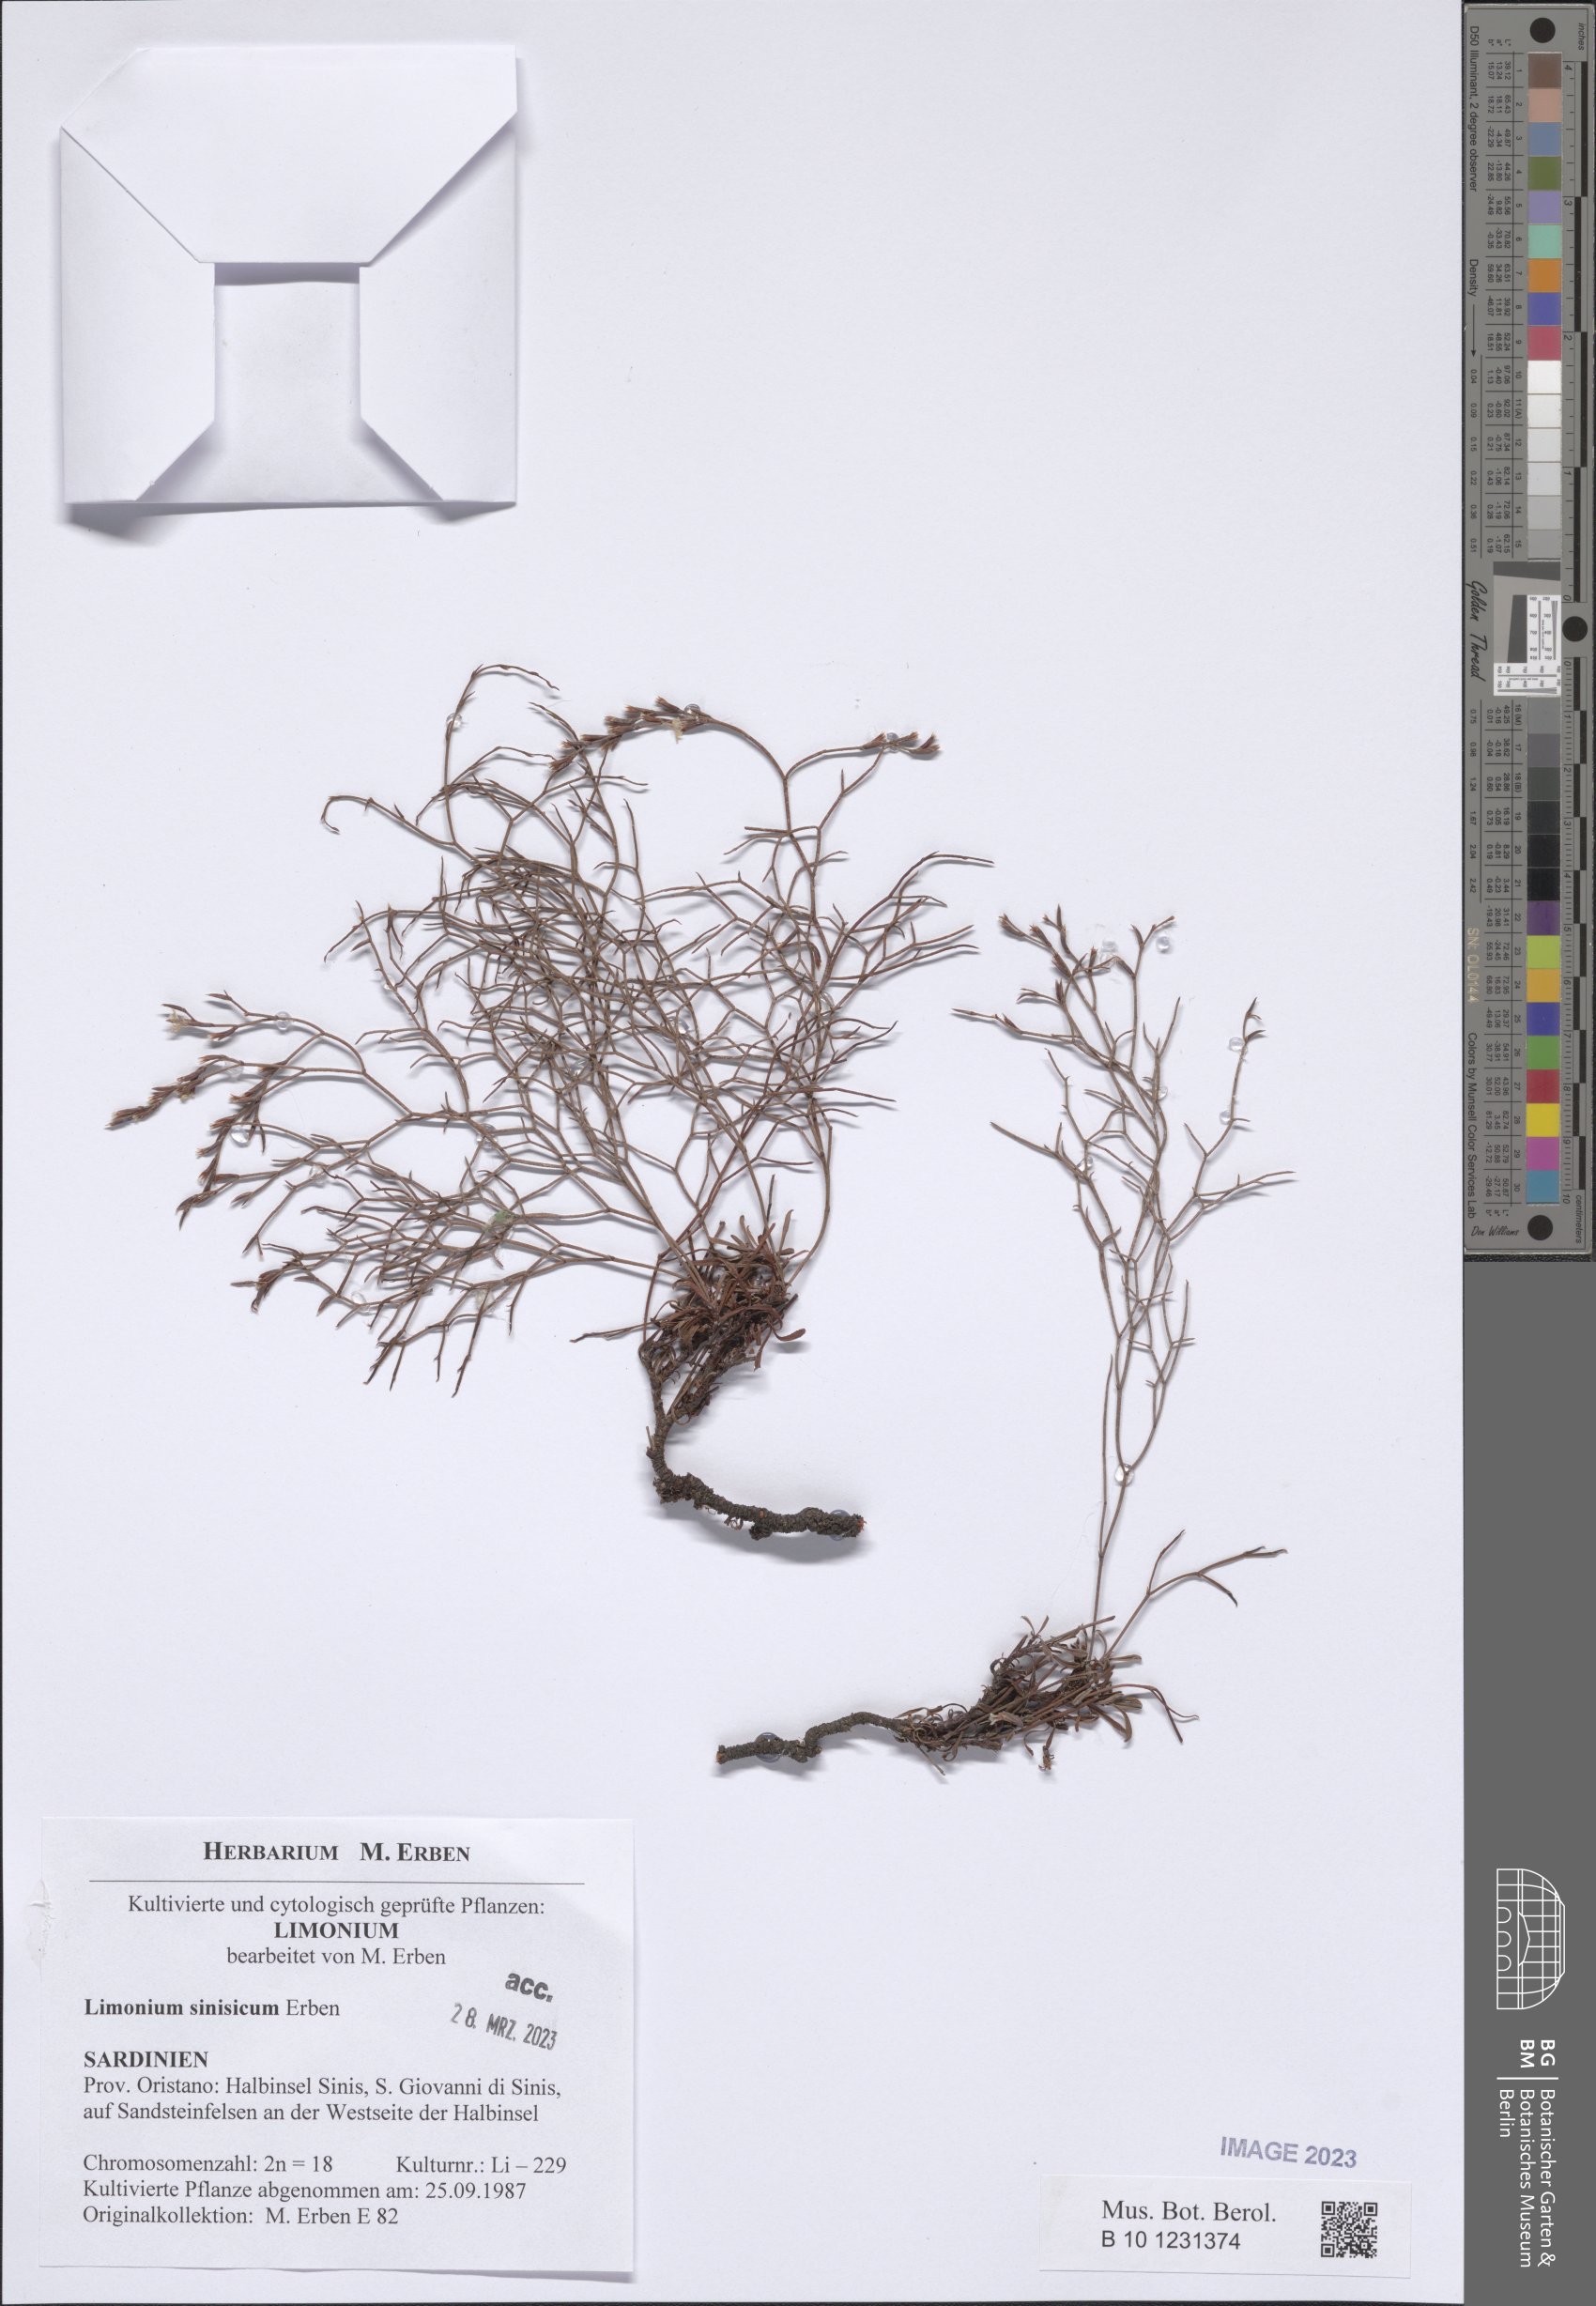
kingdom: Plantae
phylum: Tracheophyta
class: Magnoliopsida
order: Caryophyllales
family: Plumbaginaceae
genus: Limonium
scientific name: Limonium acutifolium
